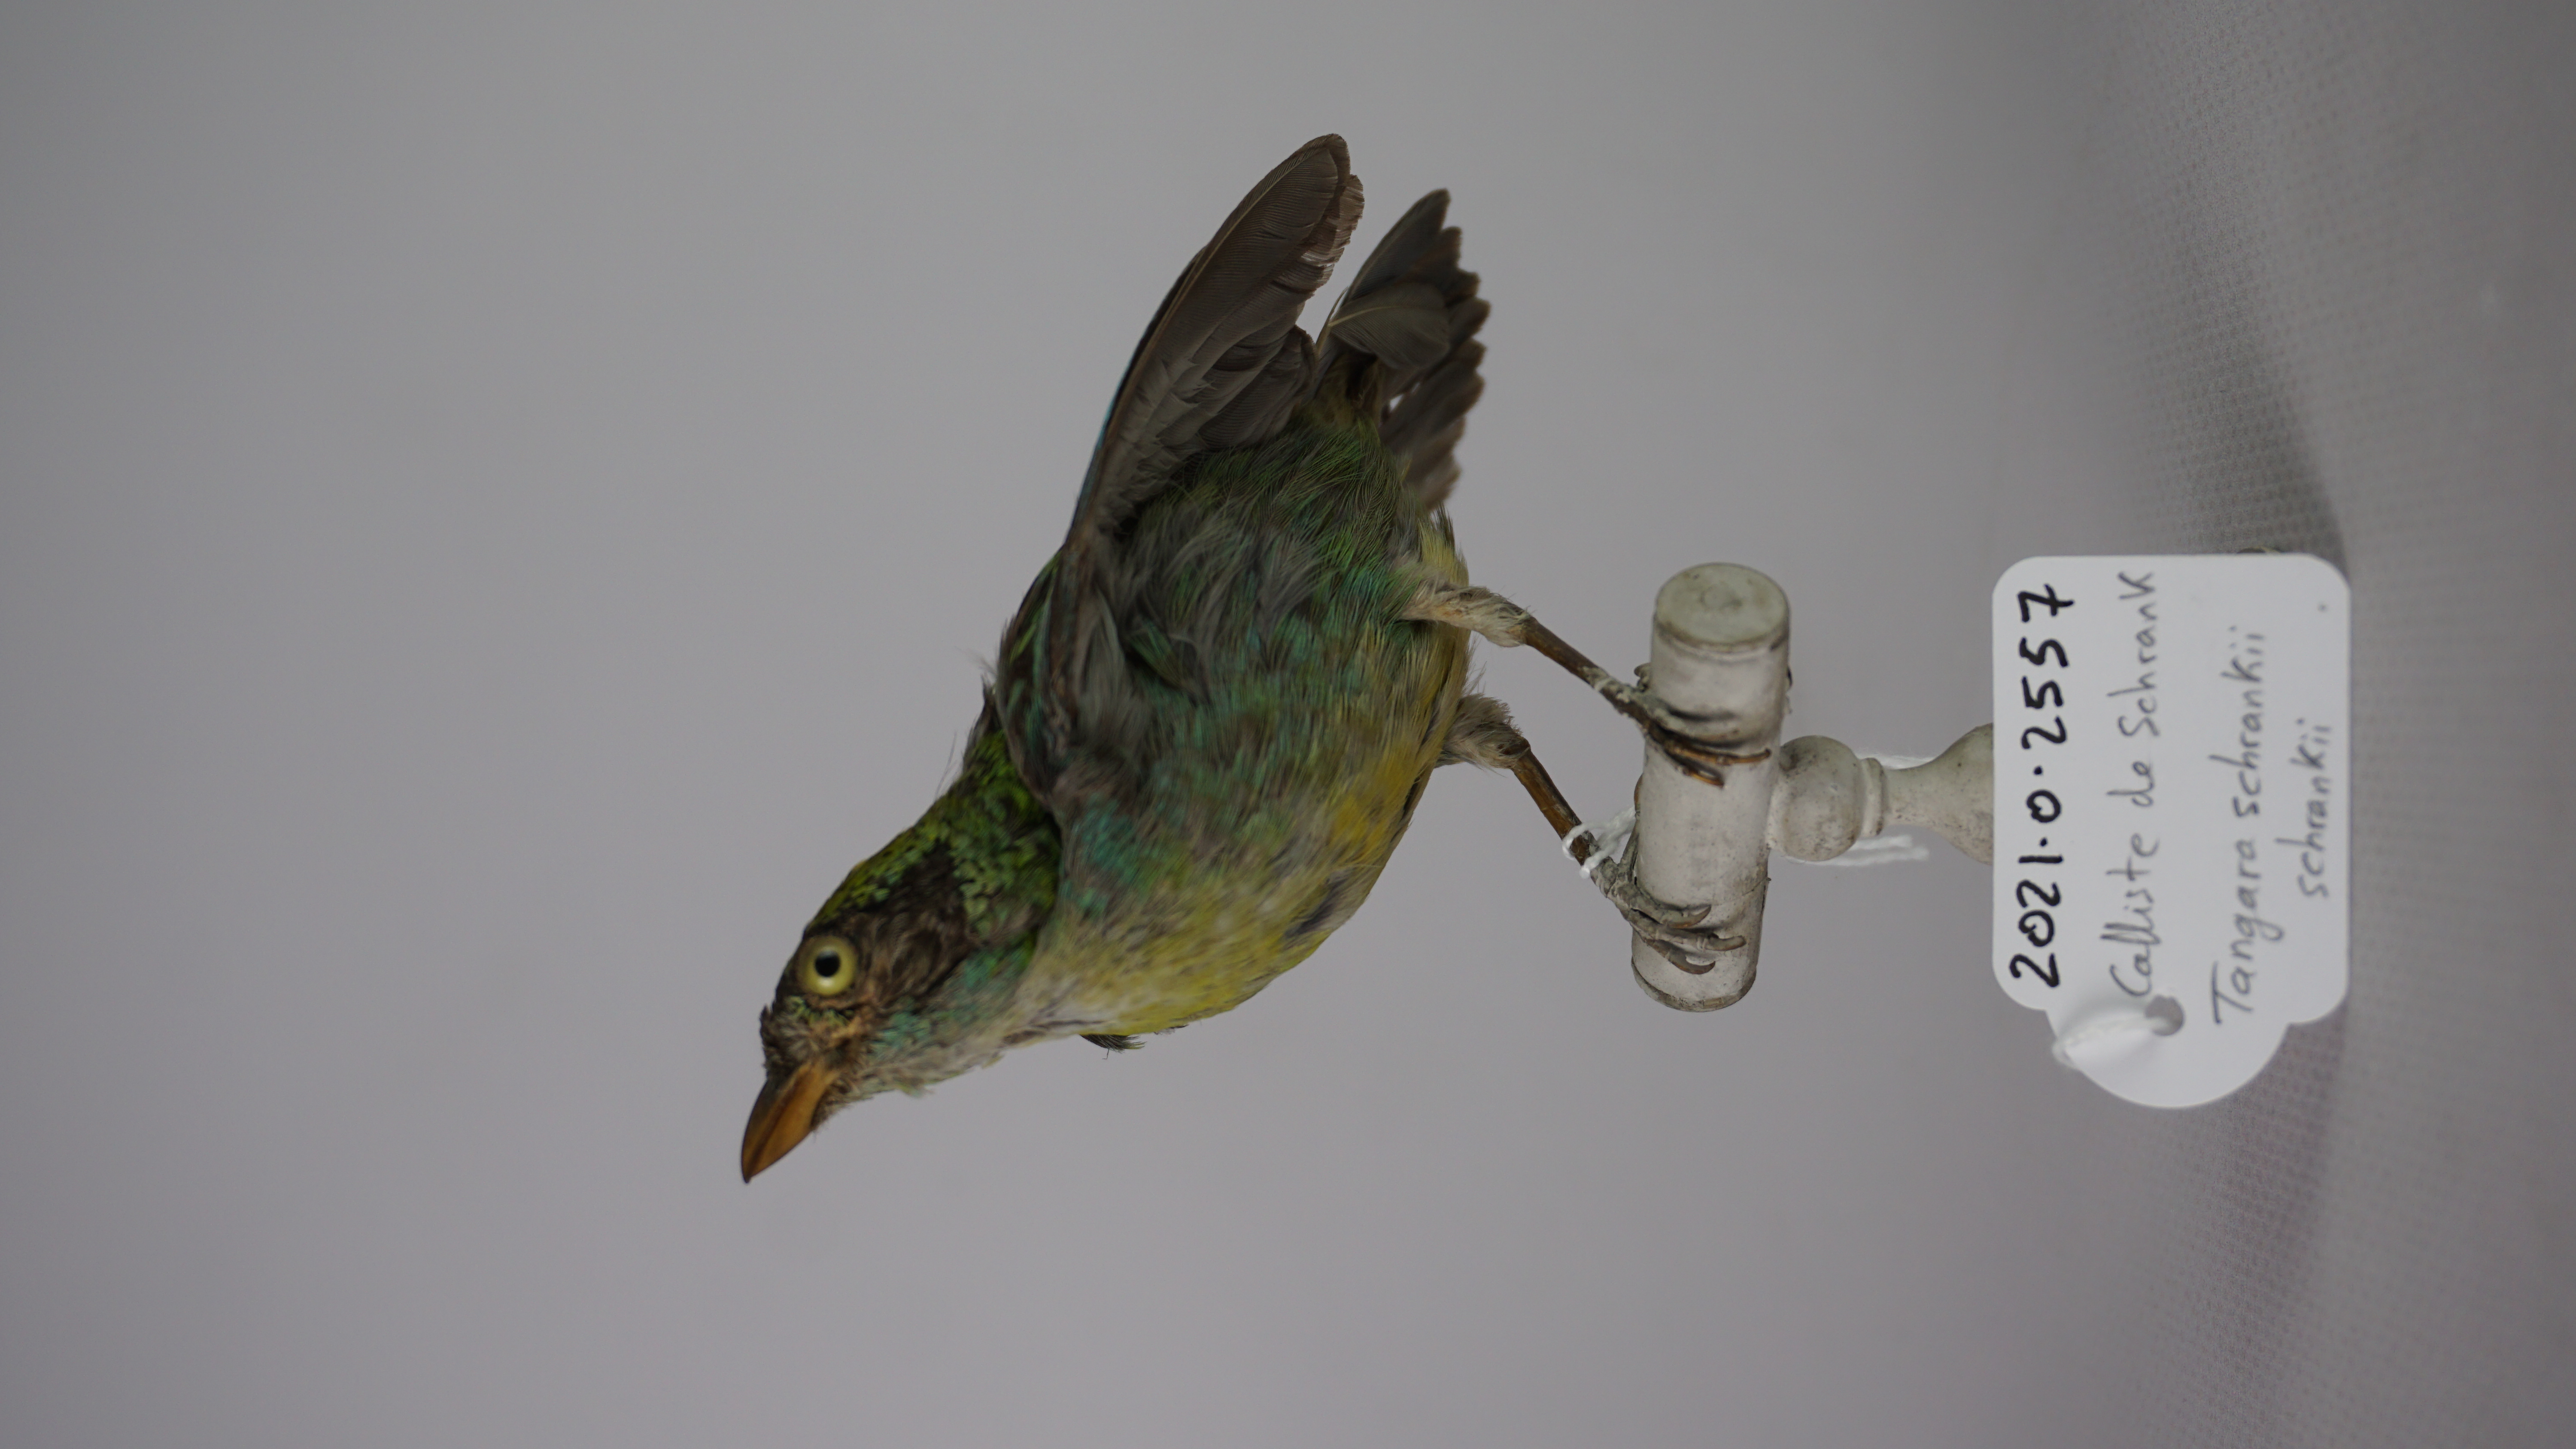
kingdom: Animalia
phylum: Chordata
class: Aves
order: Passeriformes
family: Thraupidae
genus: Tangara
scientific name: Tangara schrankii
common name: Green-and-gold tanager
